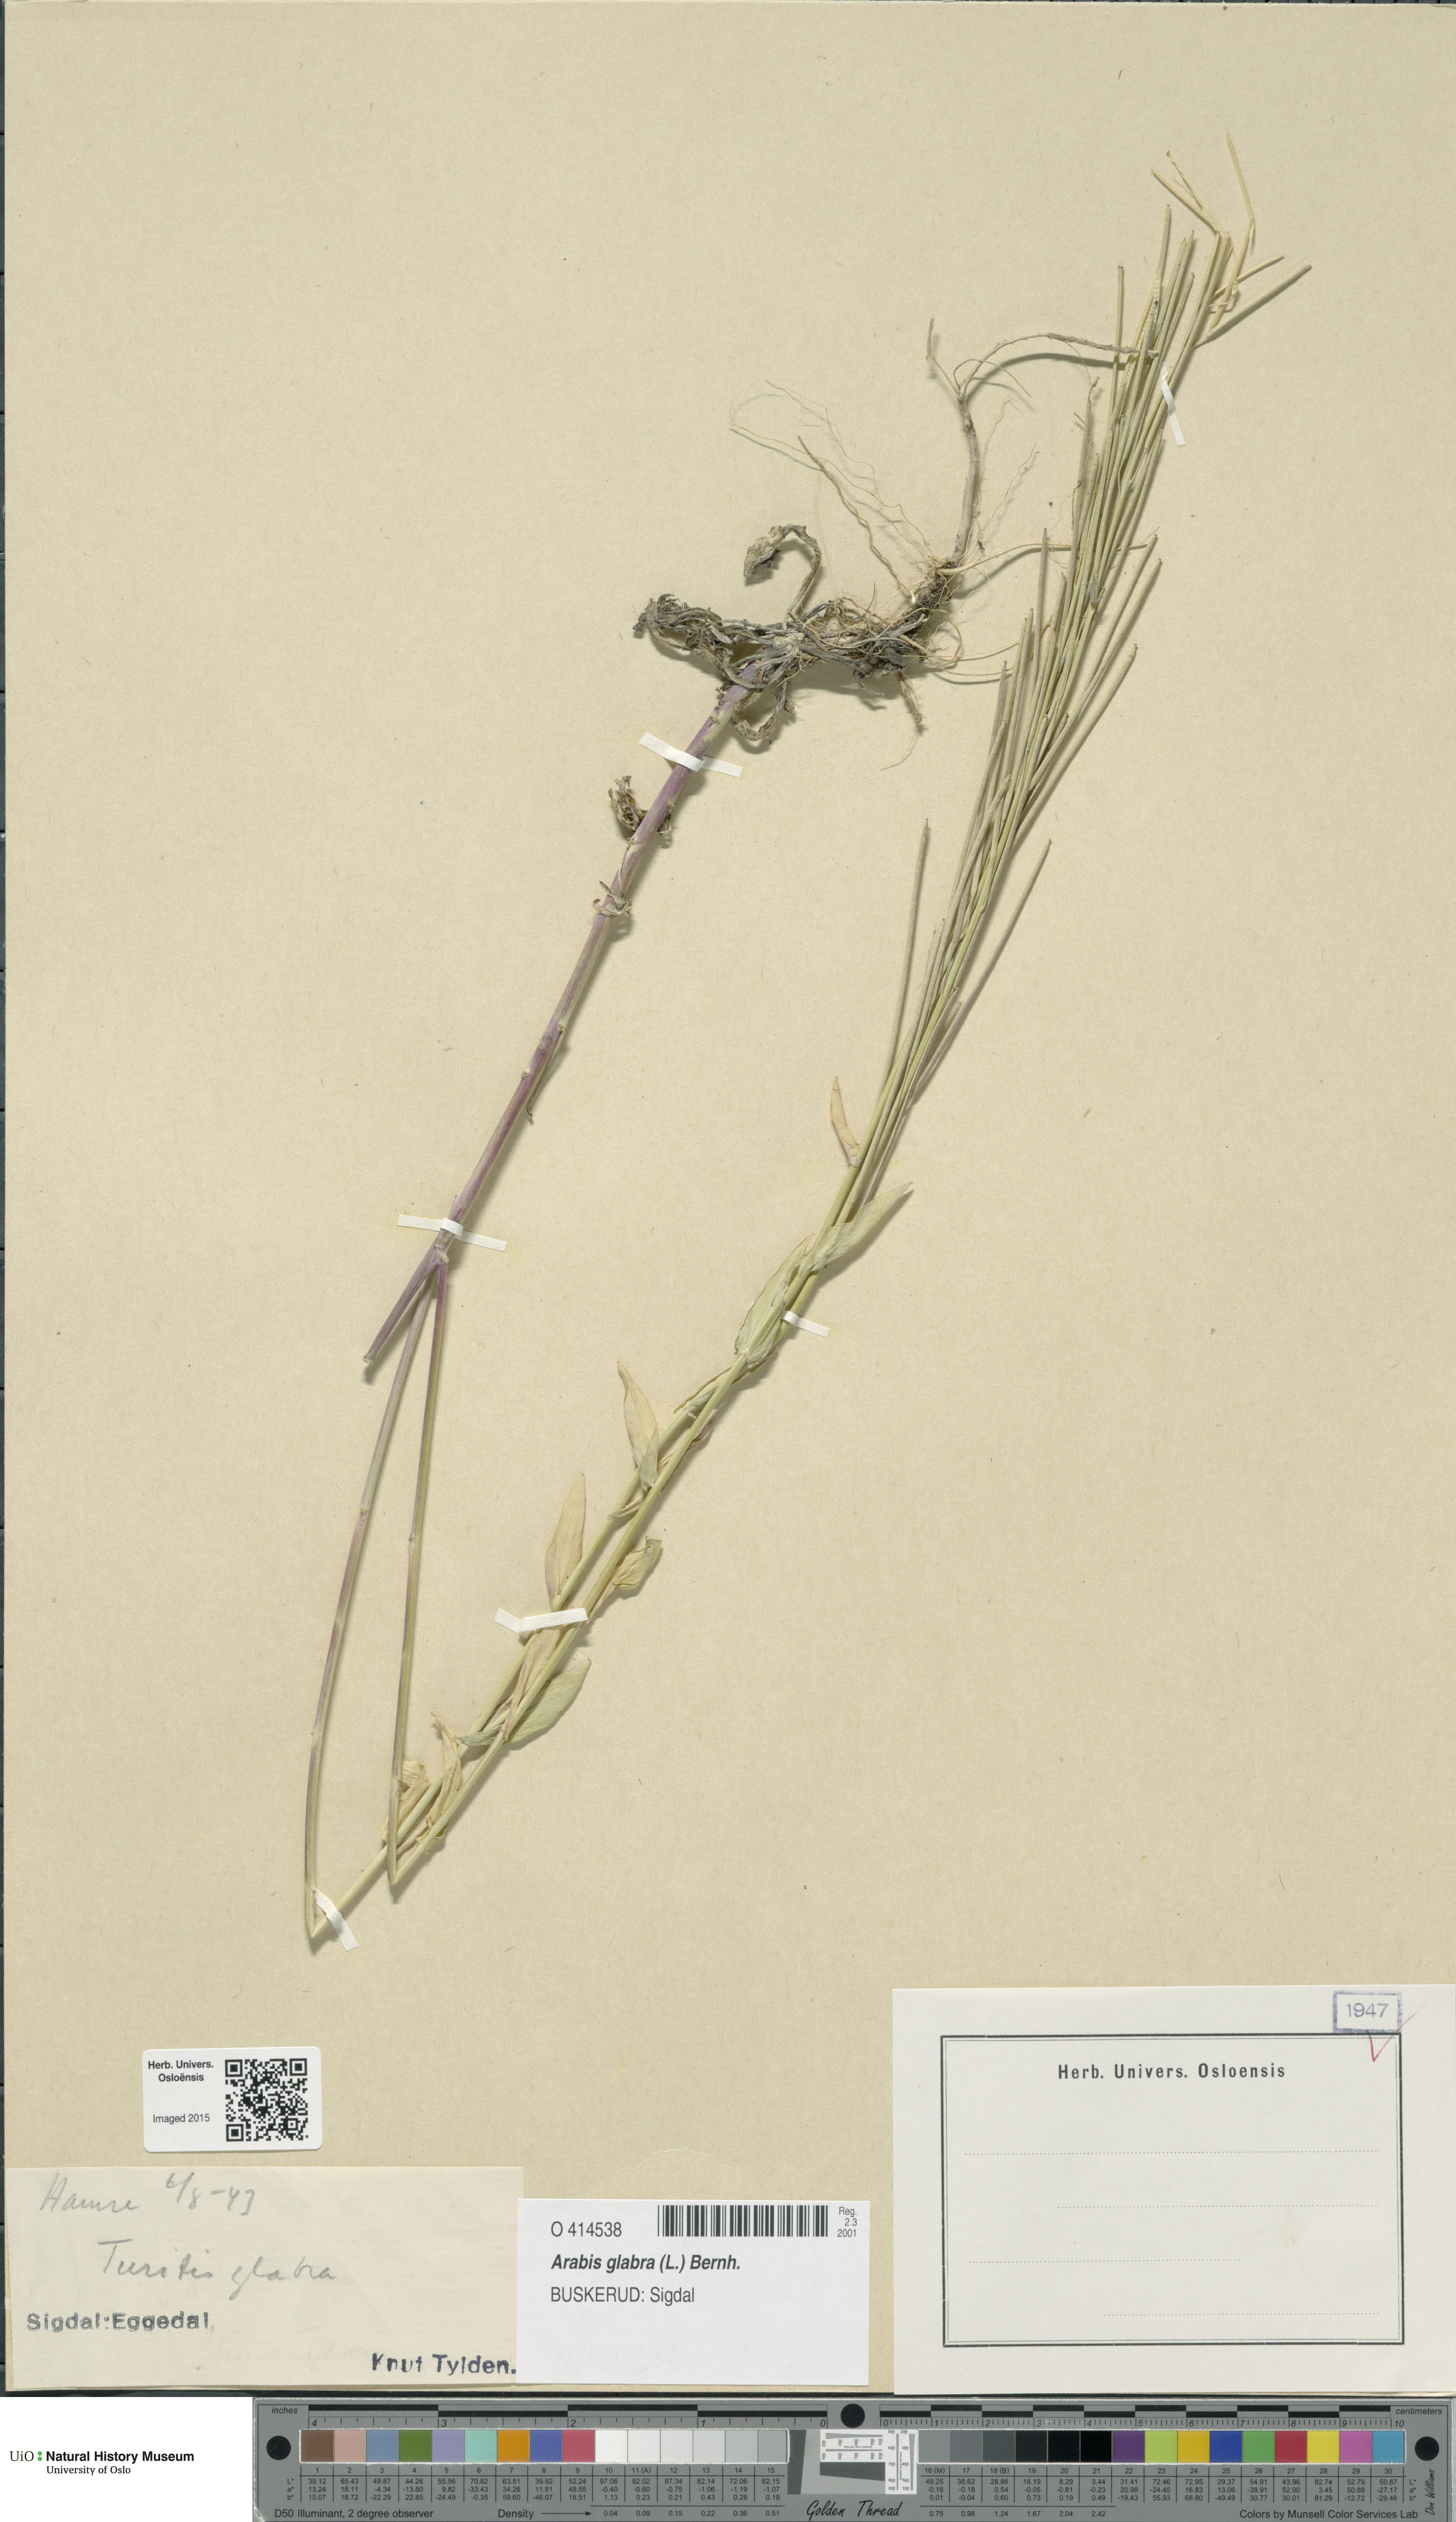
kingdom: Plantae
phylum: Tracheophyta
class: Magnoliopsida
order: Brassicales
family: Brassicaceae
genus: Turritis
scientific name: Turritis glabra
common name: Tower rockcress
